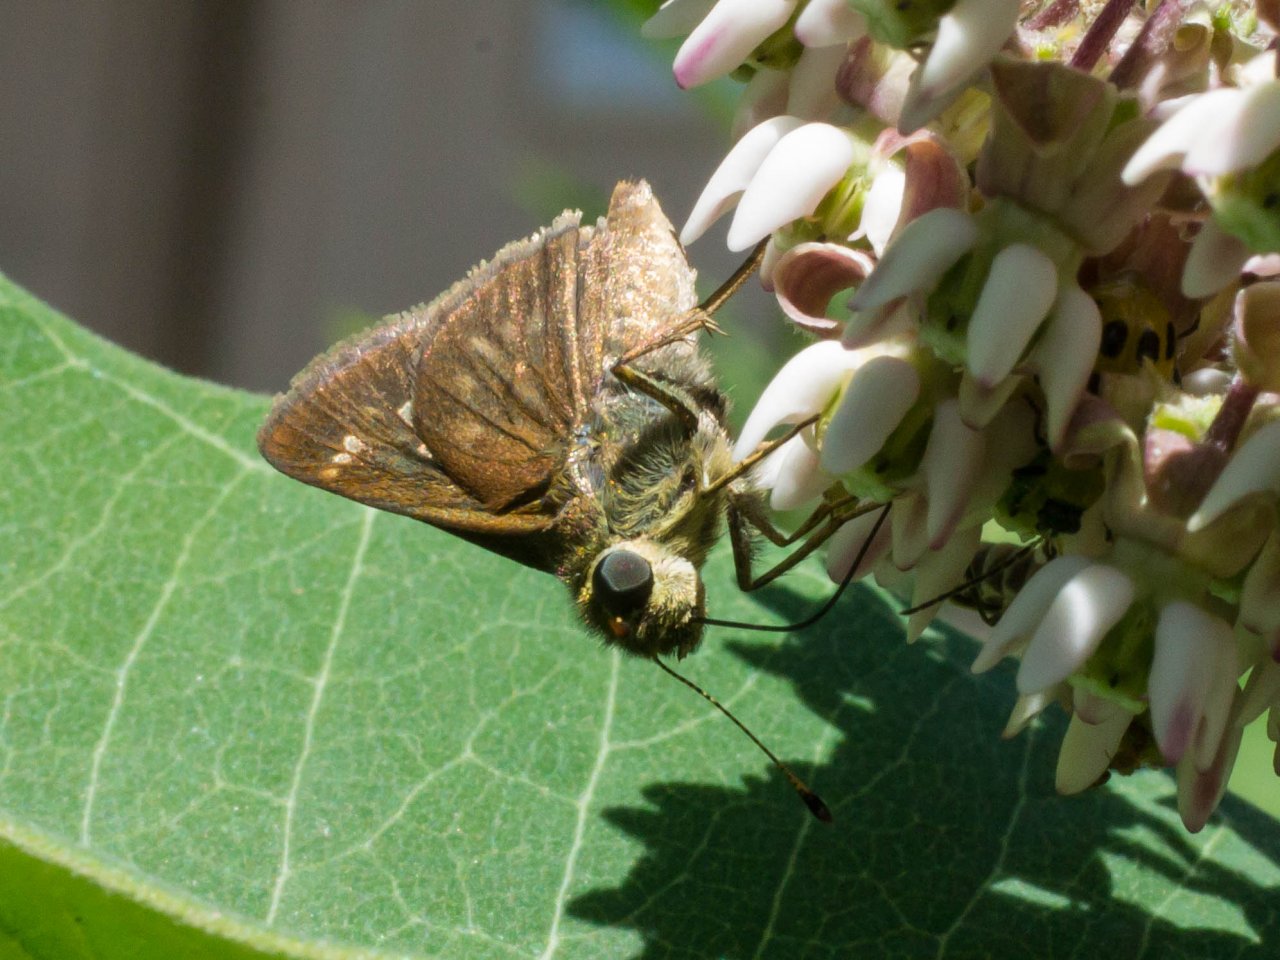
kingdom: Animalia
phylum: Arthropoda
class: Insecta
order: Lepidoptera
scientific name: Lepidoptera
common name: Butterflies
